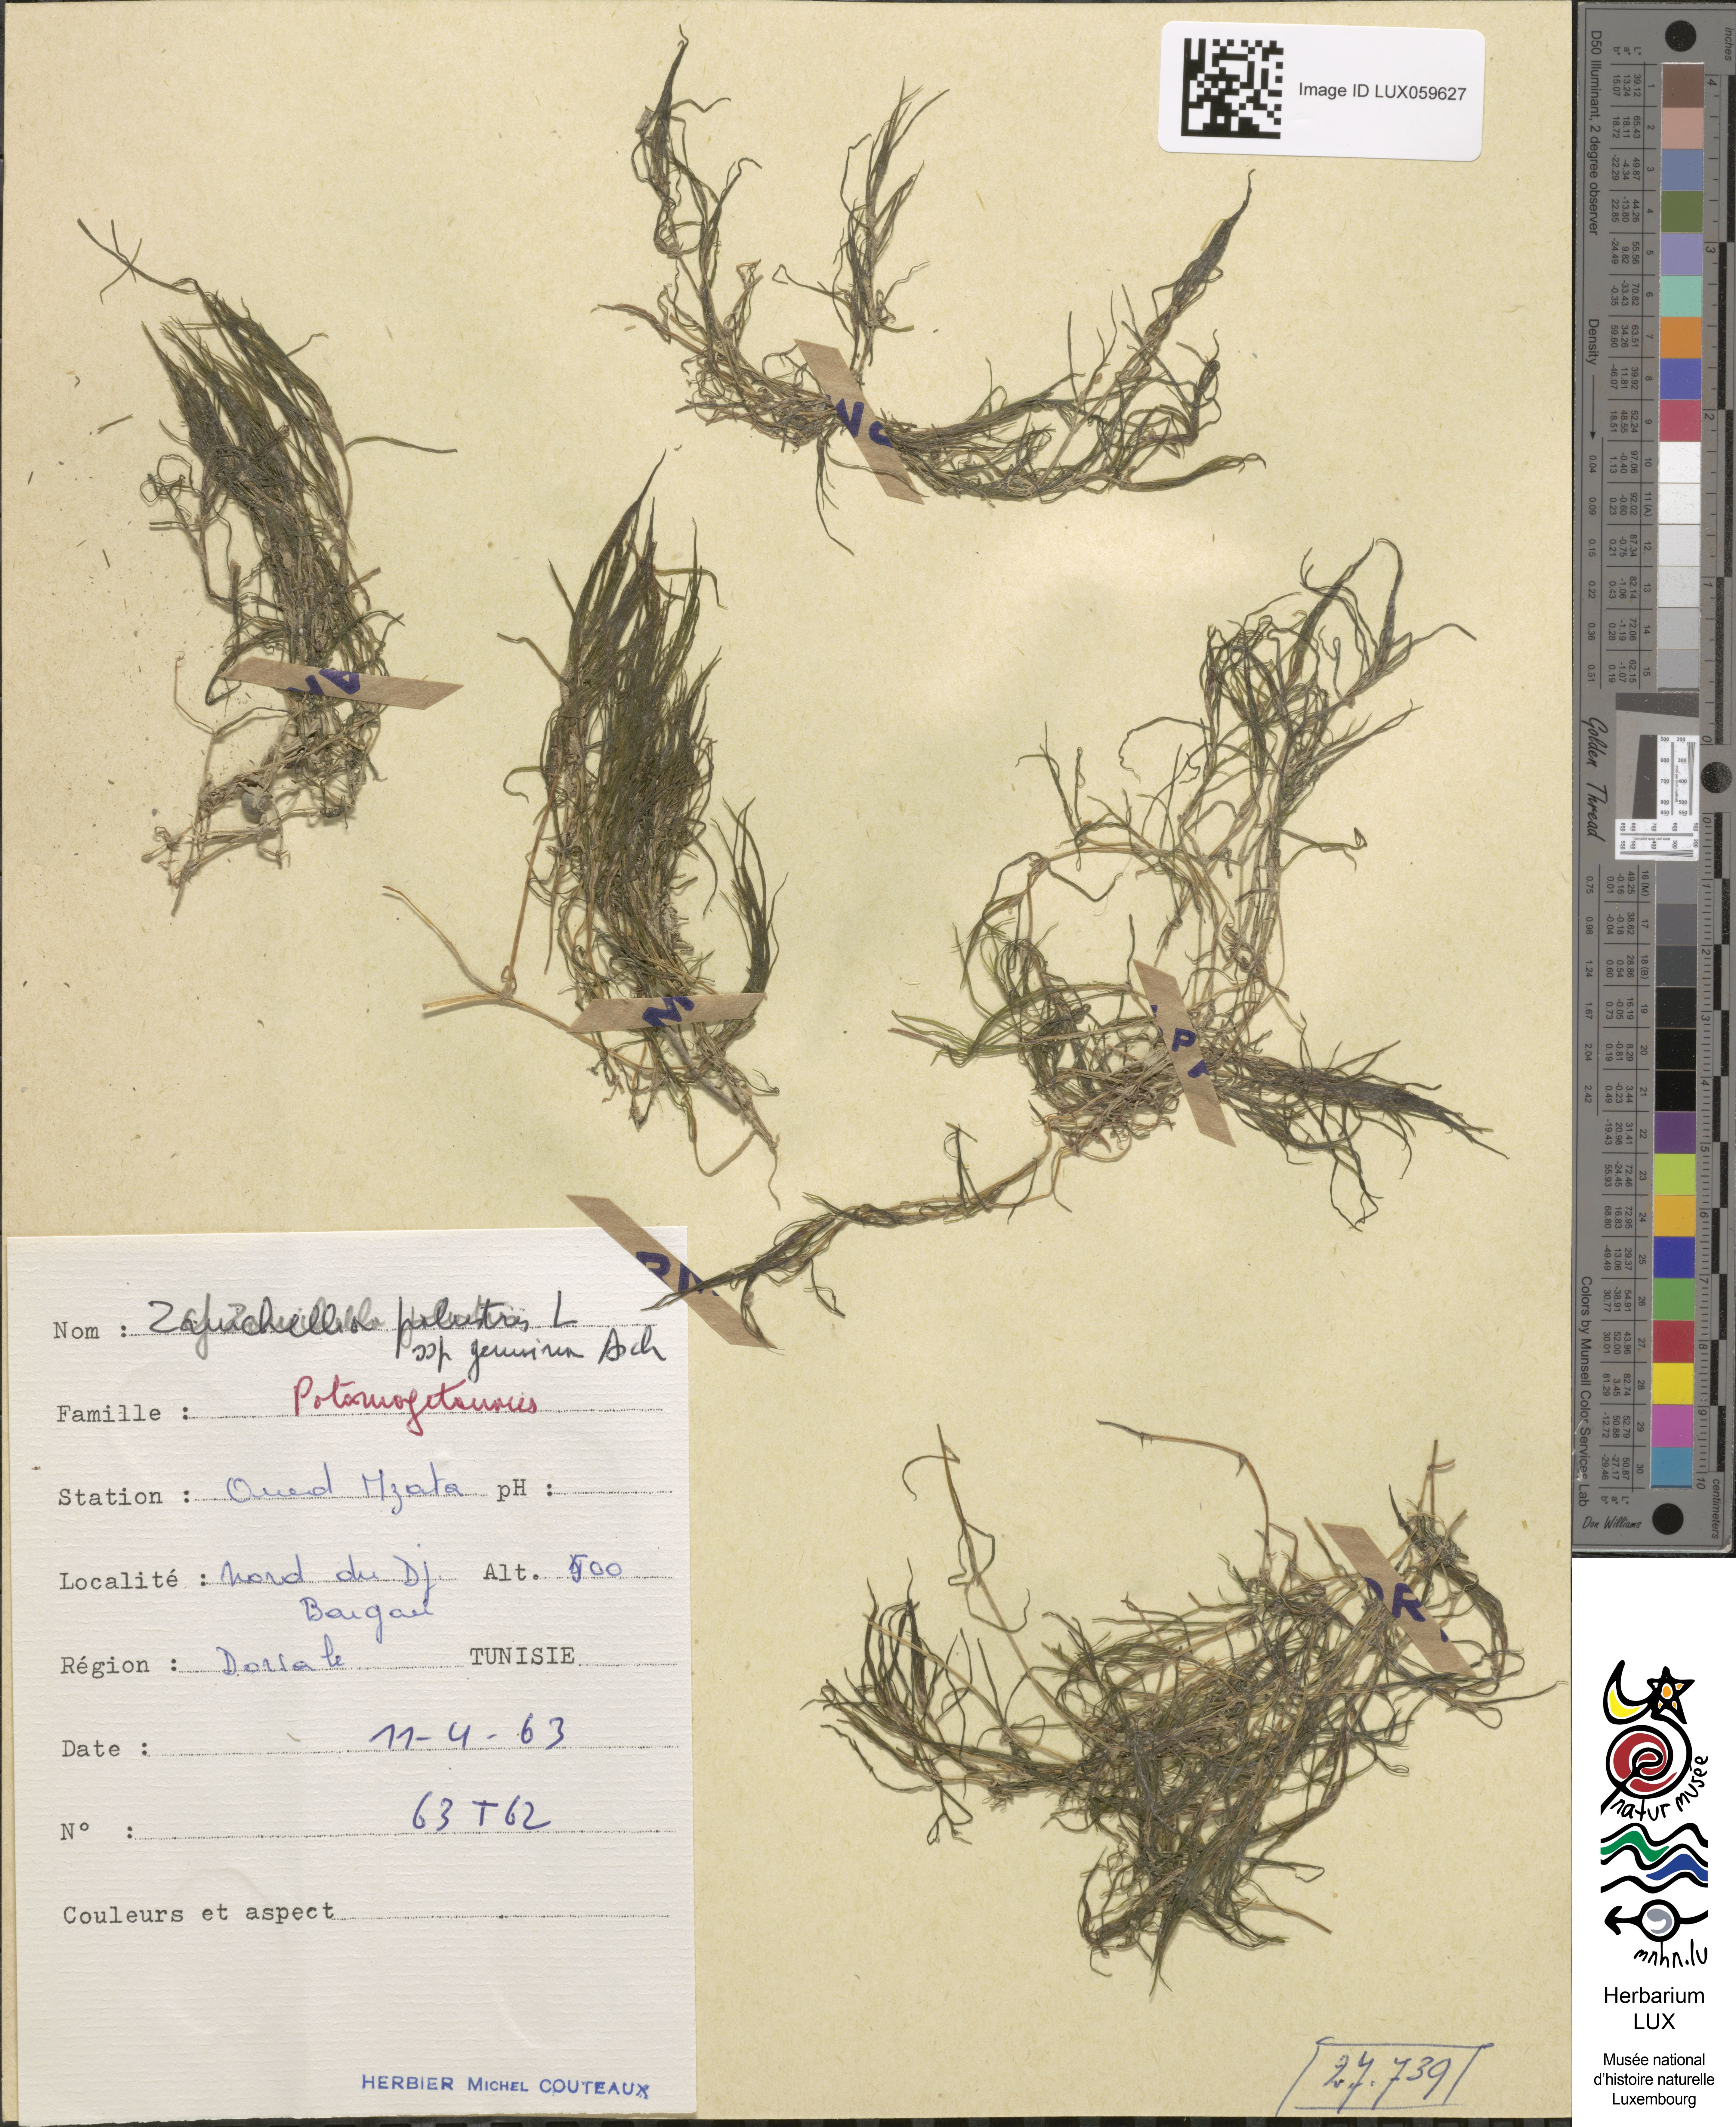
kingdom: Plantae
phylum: Tracheophyta
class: Liliopsida
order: Alismatales
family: Potamogetonaceae
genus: Zannichellia
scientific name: Zannichellia palustris
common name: Horned pondweed
